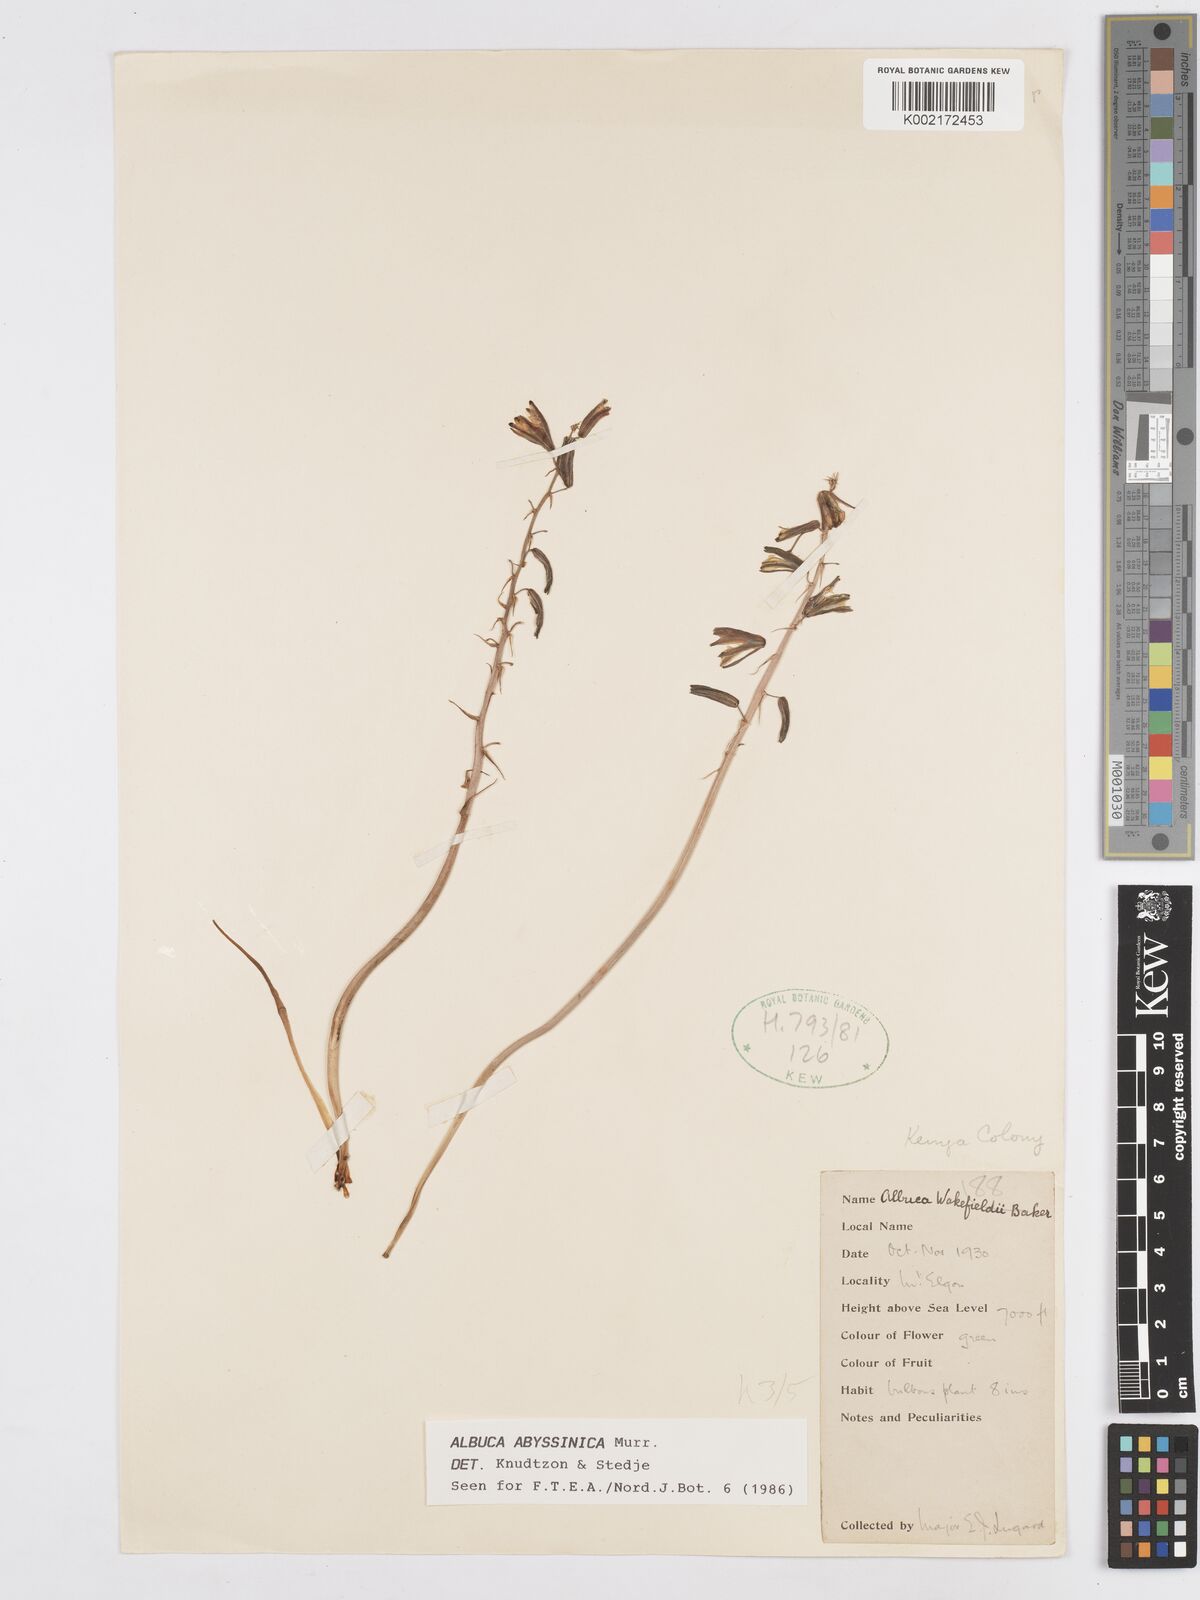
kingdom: Plantae
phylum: Tracheophyta
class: Liliopsida
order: Asparagales
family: Asparagaceae
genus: Albuca
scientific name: Albuca abyssinica
